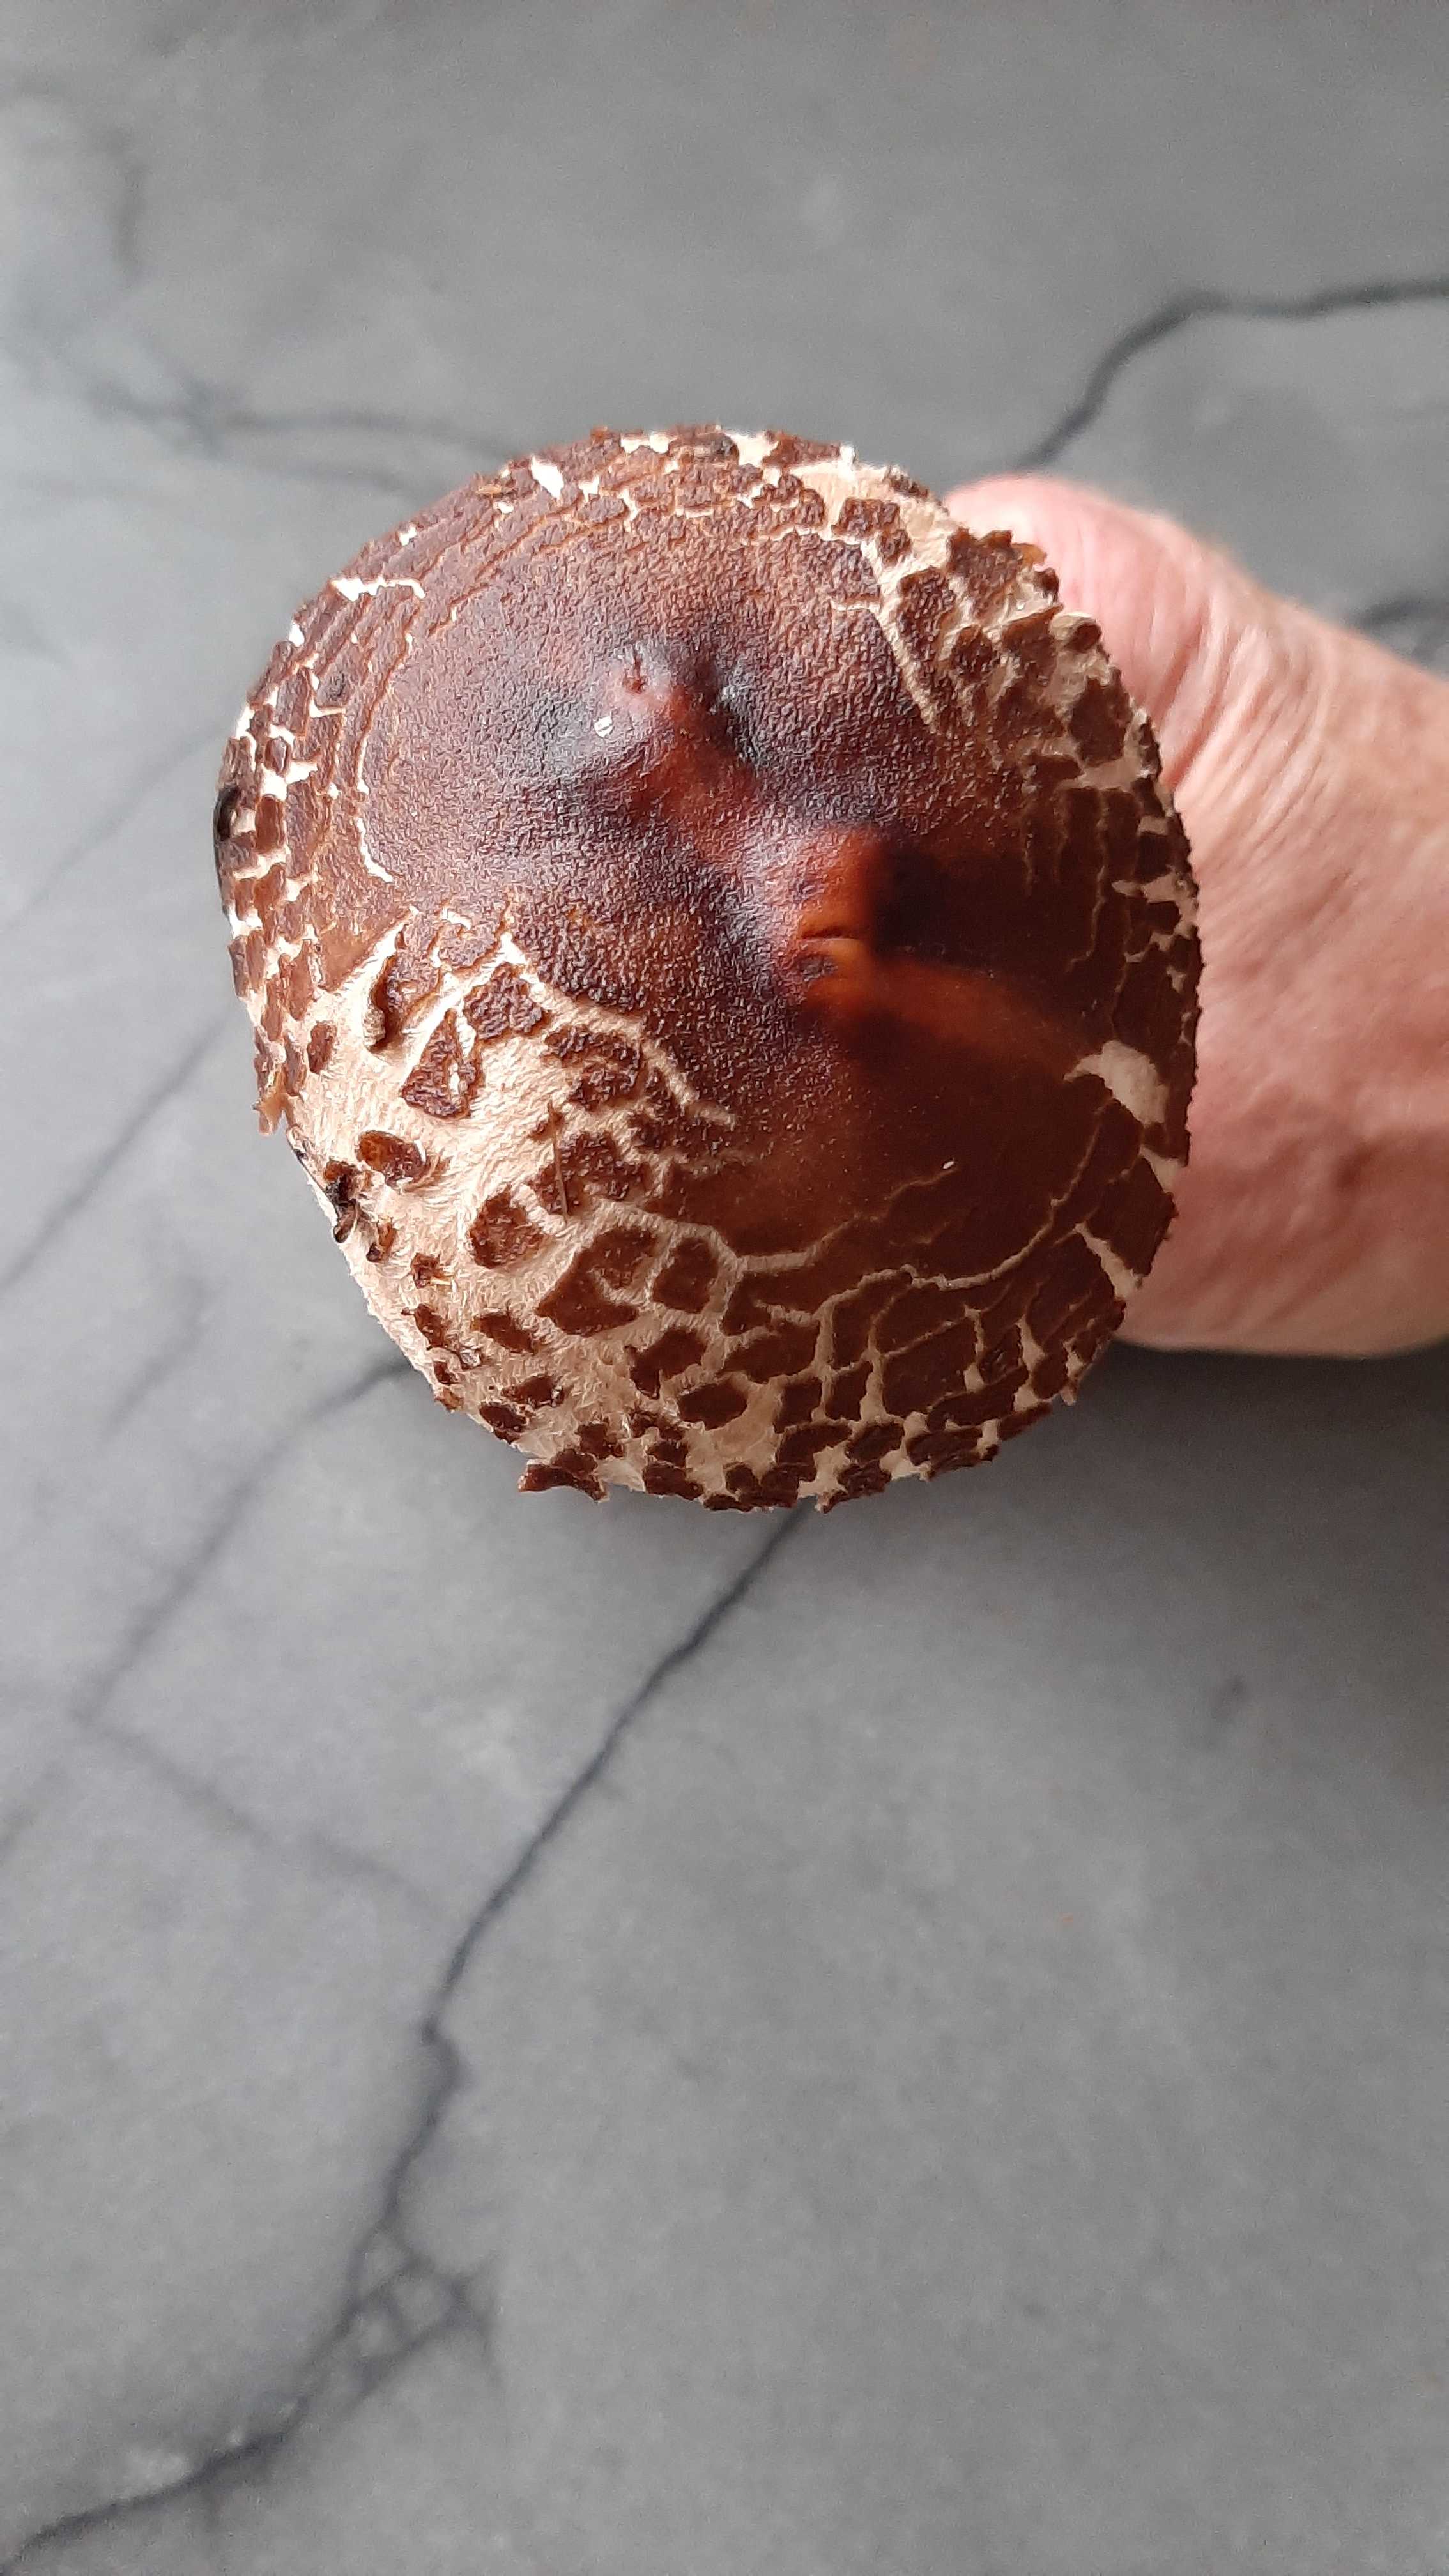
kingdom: Fungi
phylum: Basidiomycota
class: Agaricomycetes
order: Agaricales
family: Agaricaceae
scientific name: Agaricaceae
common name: champignonfamilien
